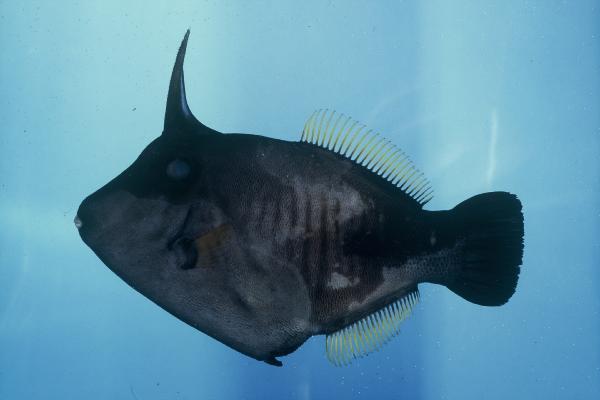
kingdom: Animalia
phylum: Chordata
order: Tetraodontiformes
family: Monacanthidae
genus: Amanses
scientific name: Amanses scopas
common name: Broom filefish
